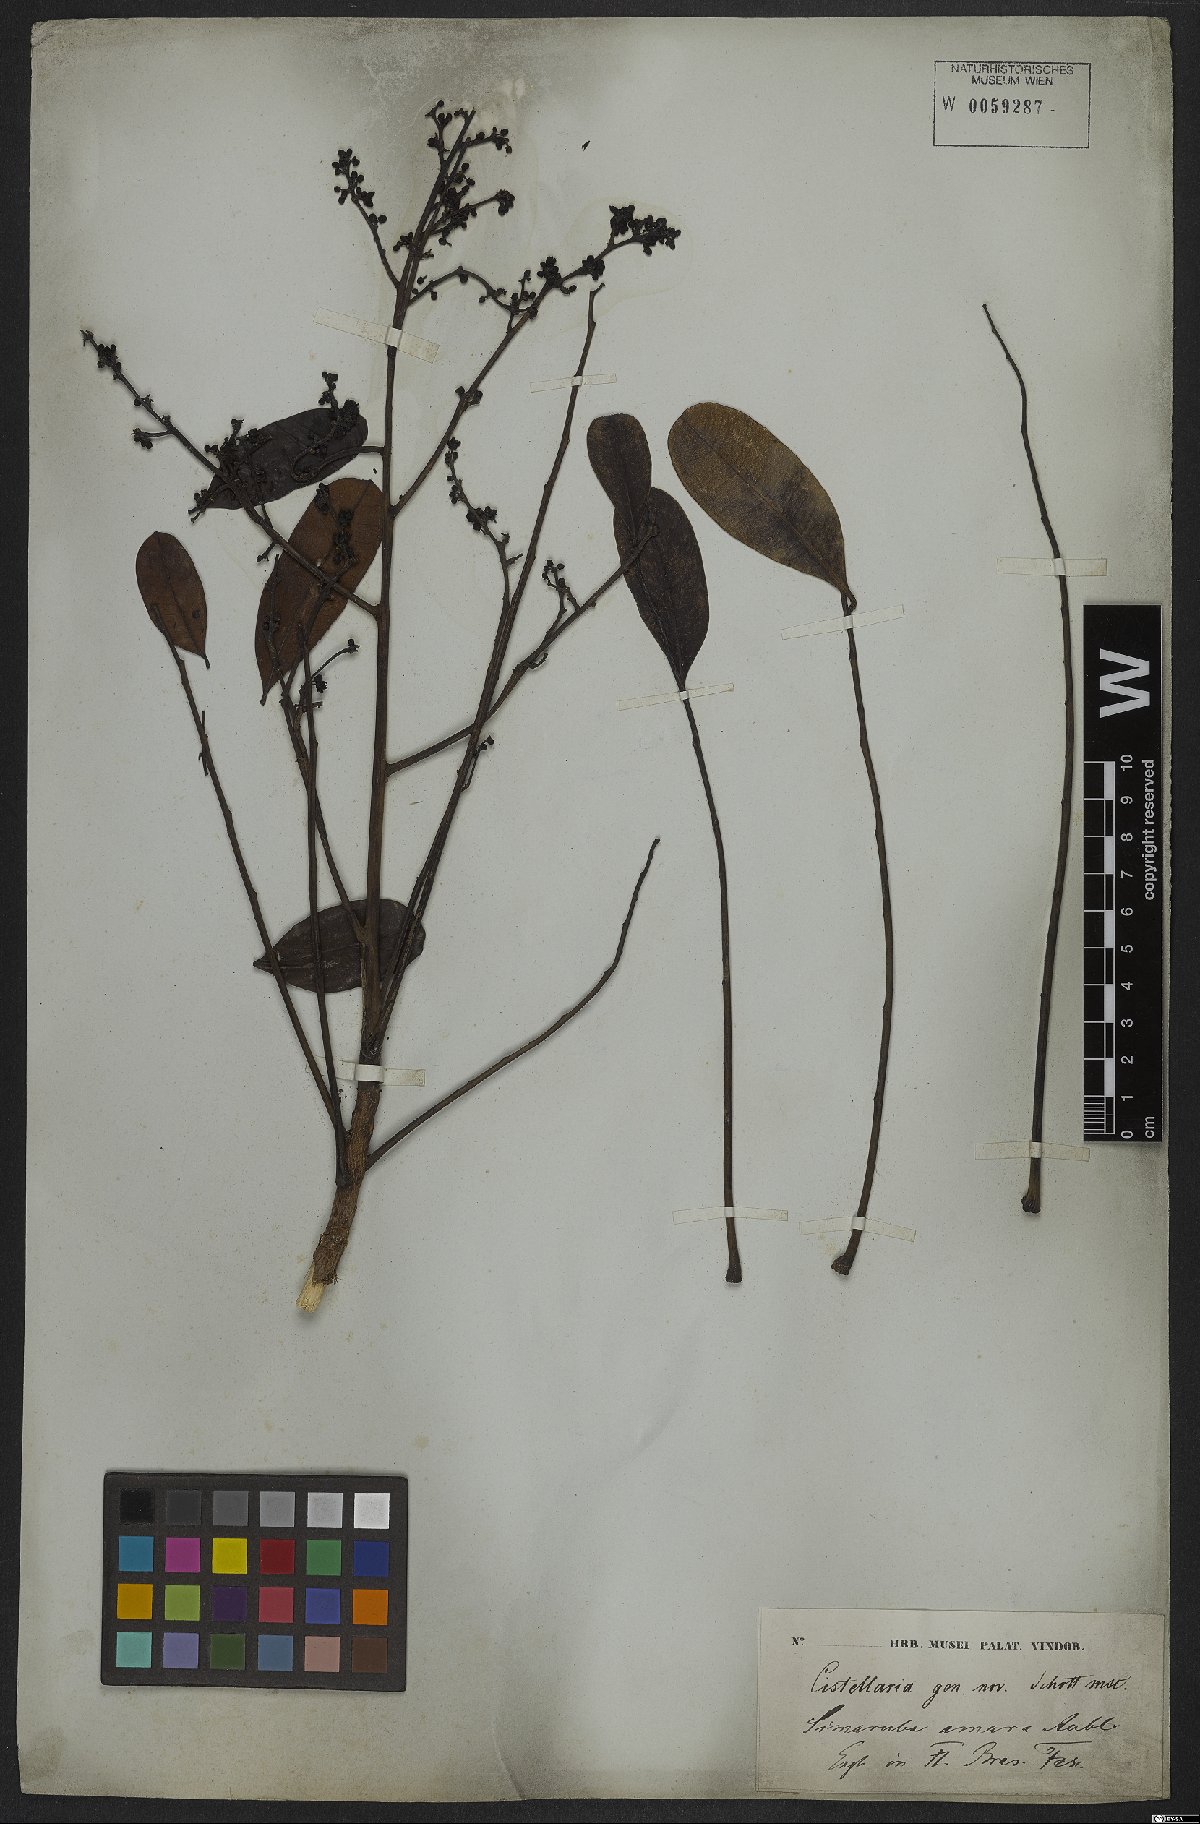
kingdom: Plantae
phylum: Tracheophyta
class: Magnoliopsida
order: Sapindales
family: Simaroubaceae
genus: Simarouba
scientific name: Simarouba amara
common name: Bitterwood
